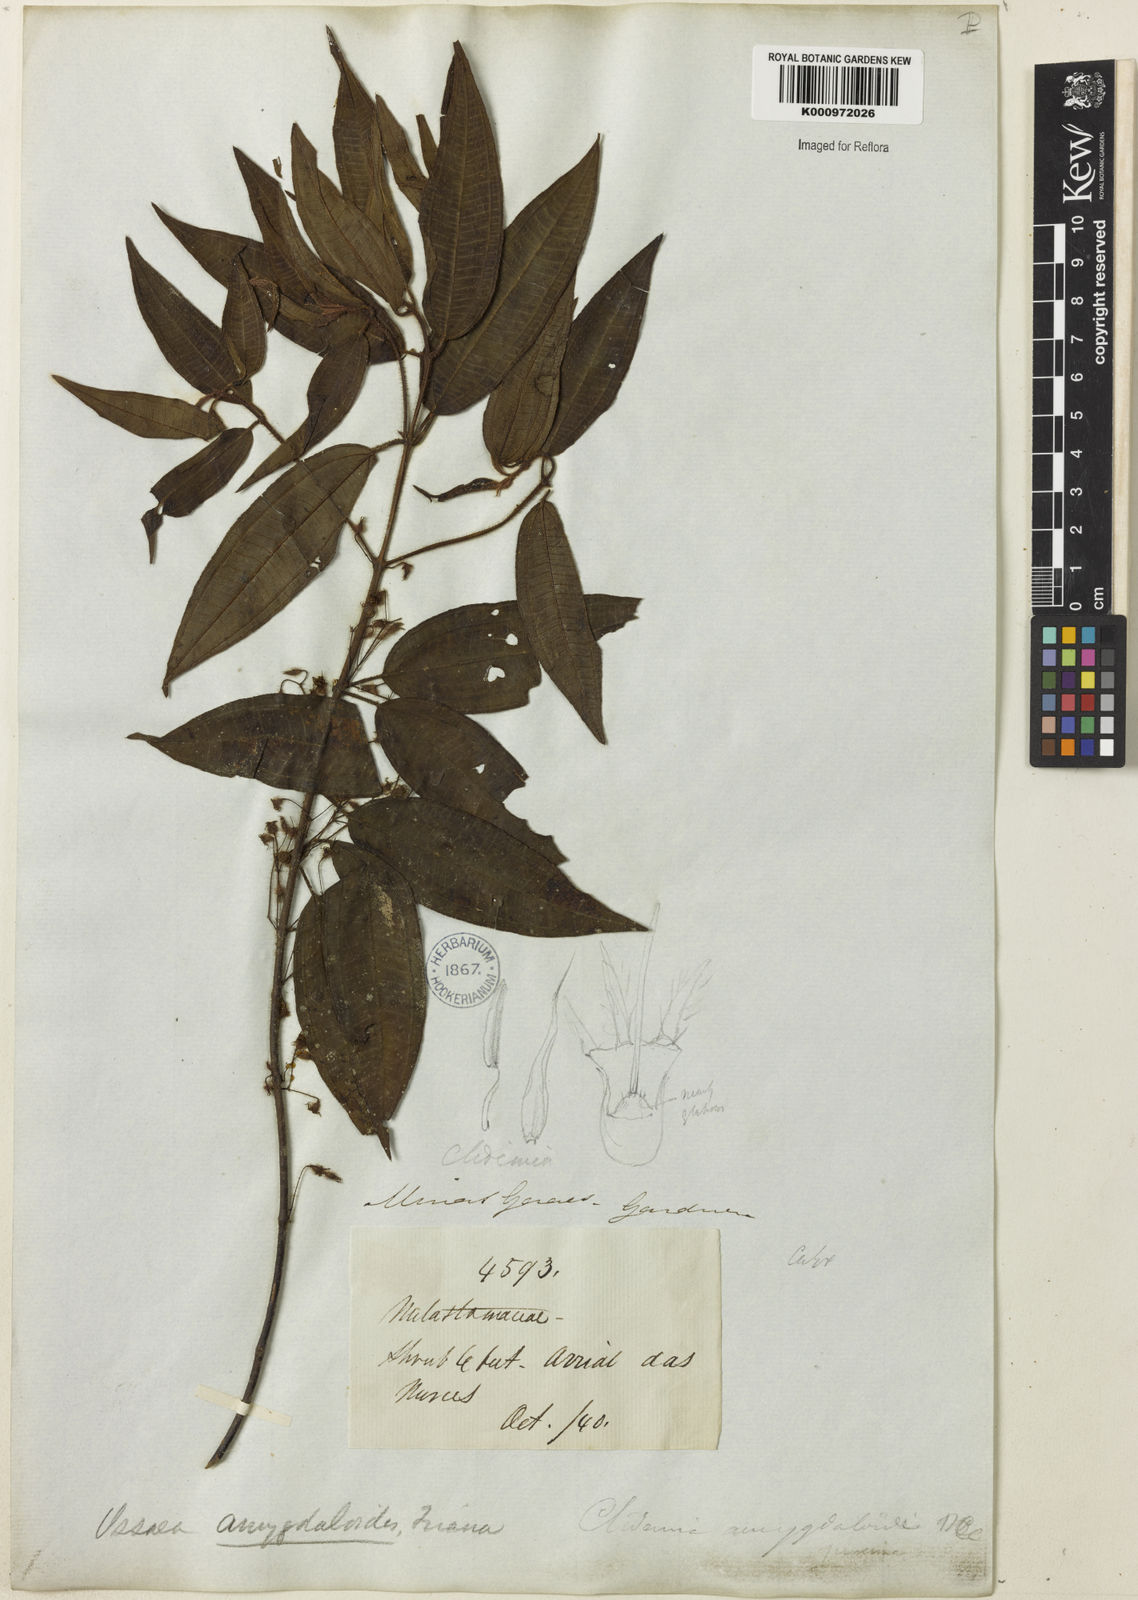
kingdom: Plantae
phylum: Tracheophyta
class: Magnoliopsida
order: Myrtales
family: Melastomataceae
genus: Miconia
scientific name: Miconia amygdaloides
